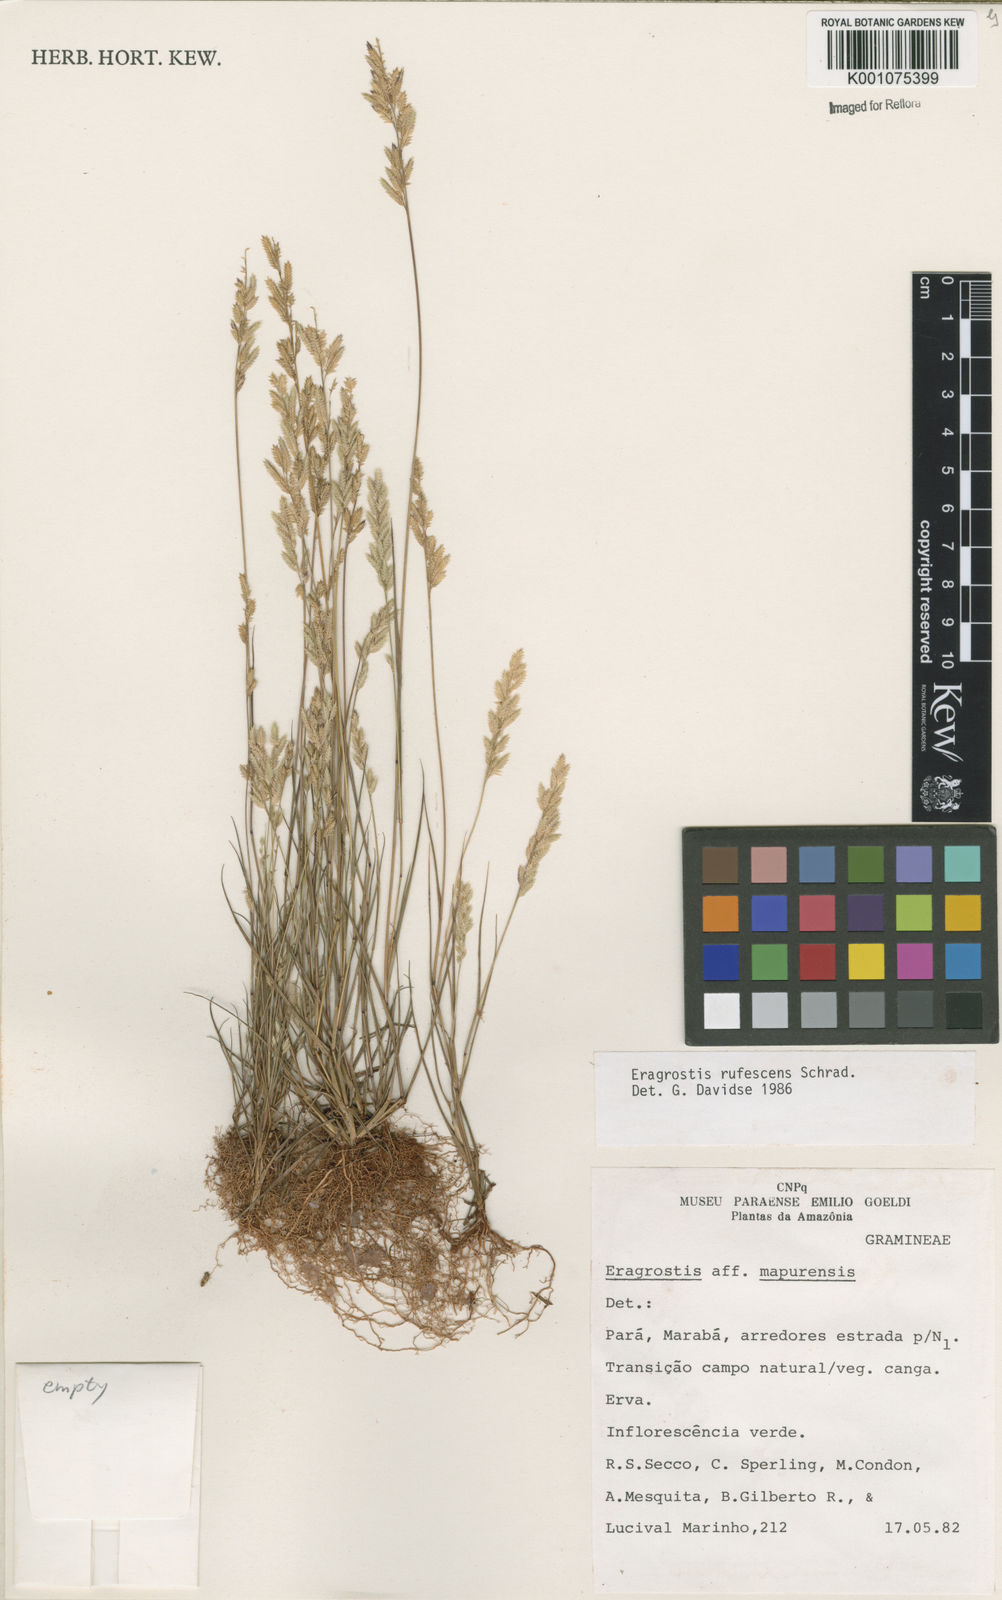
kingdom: Plantae
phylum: Tracheophyta
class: Liliopsida
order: Poales
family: Poaceae
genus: Eragrostis
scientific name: Eragrostis rufescens
